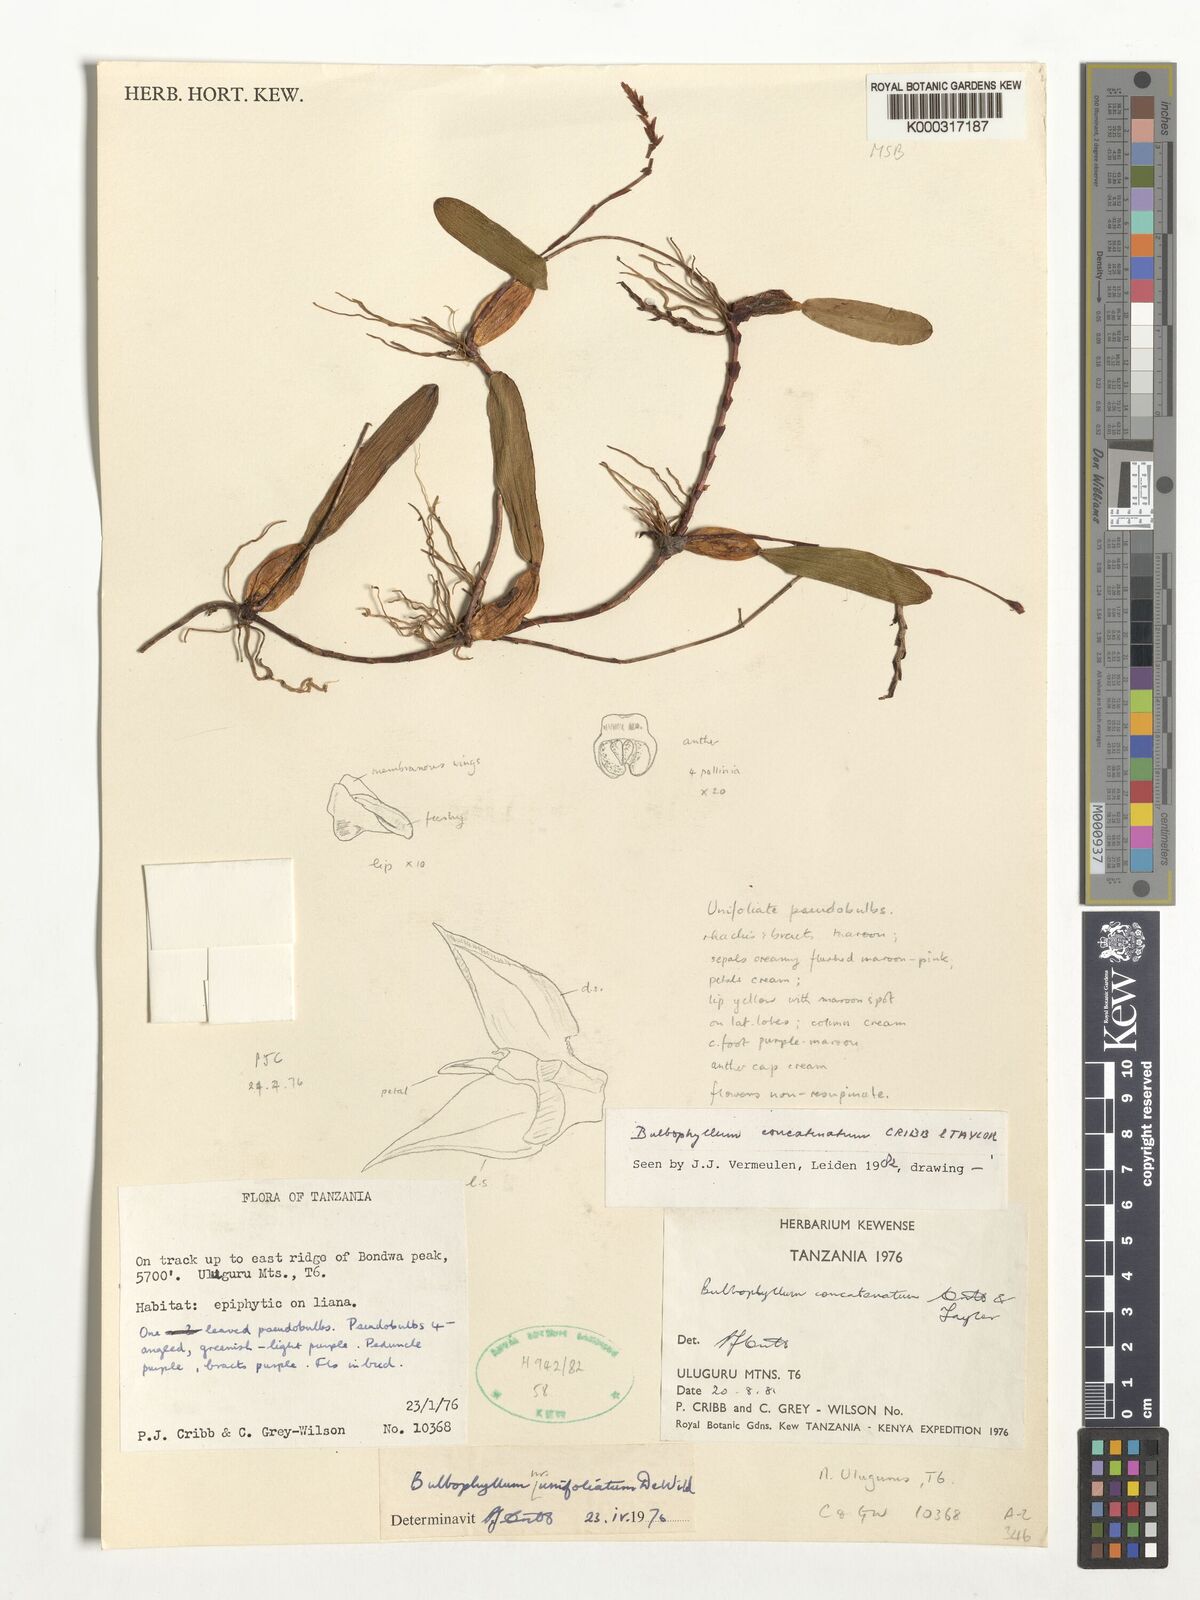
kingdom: Plantae
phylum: Tracheophyta
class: Liliopsida
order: Asparagales
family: Orchidaceae
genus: Bulbophyllum
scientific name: Bulbophyllum concatenatum
